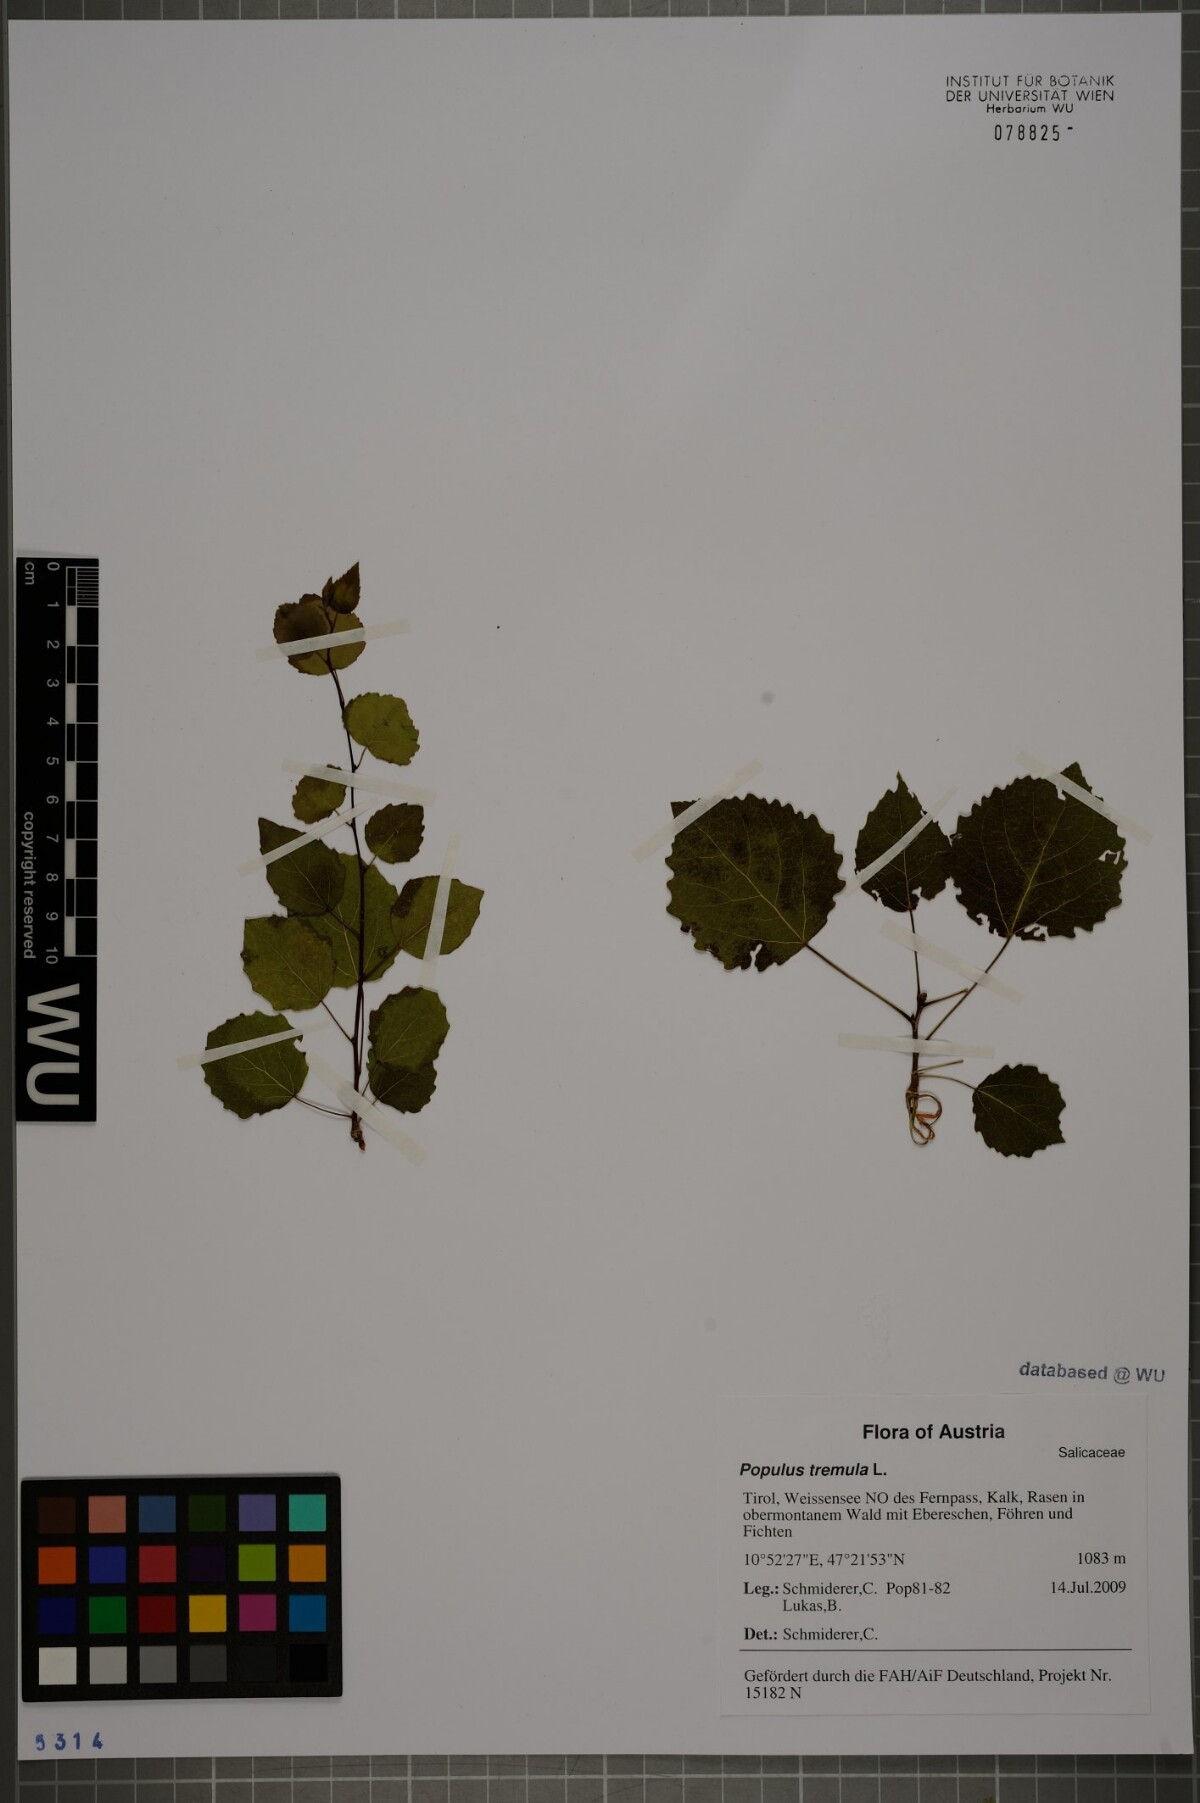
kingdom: Plantae
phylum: Tracheophyta
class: Magnoliopsida
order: Malpighiales
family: Salicaceae
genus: Populus
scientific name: Populus tremula
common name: European aspen
